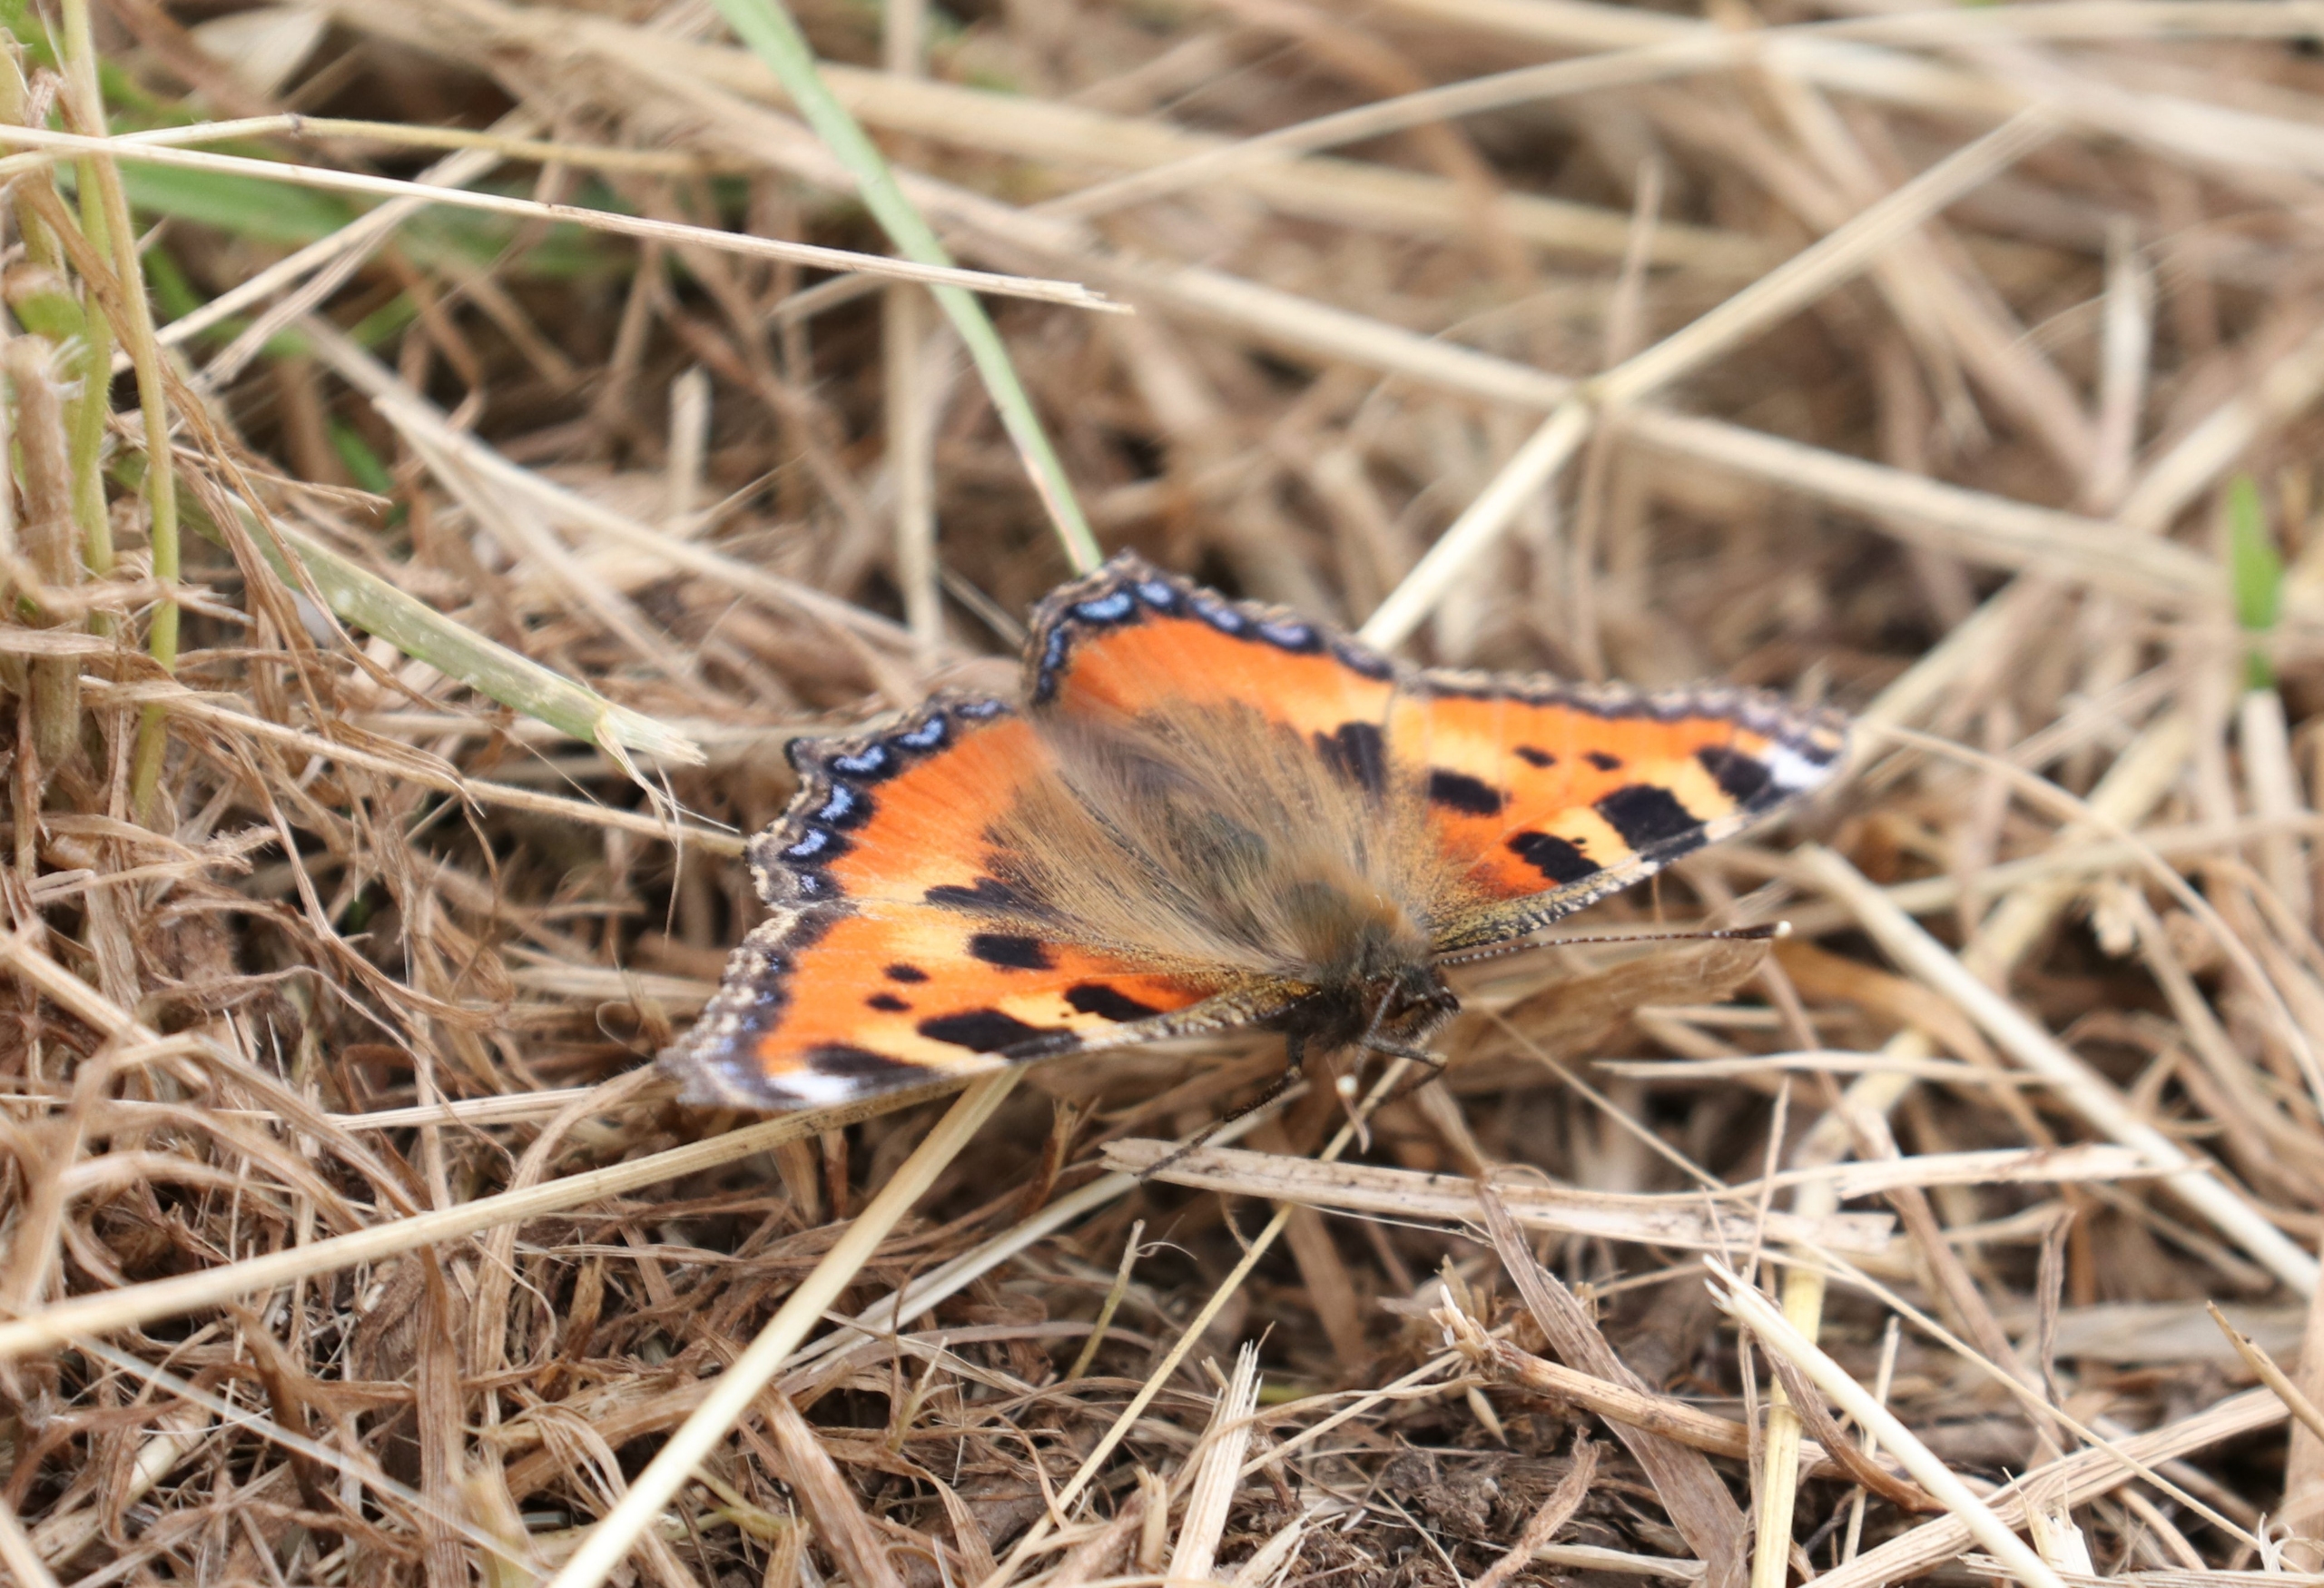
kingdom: Animalia
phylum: Arthropoda
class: Insecta
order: Lepidoptera
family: Nymphalidae
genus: Aglais
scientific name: Aglais urticae
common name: Nældens takvinge
